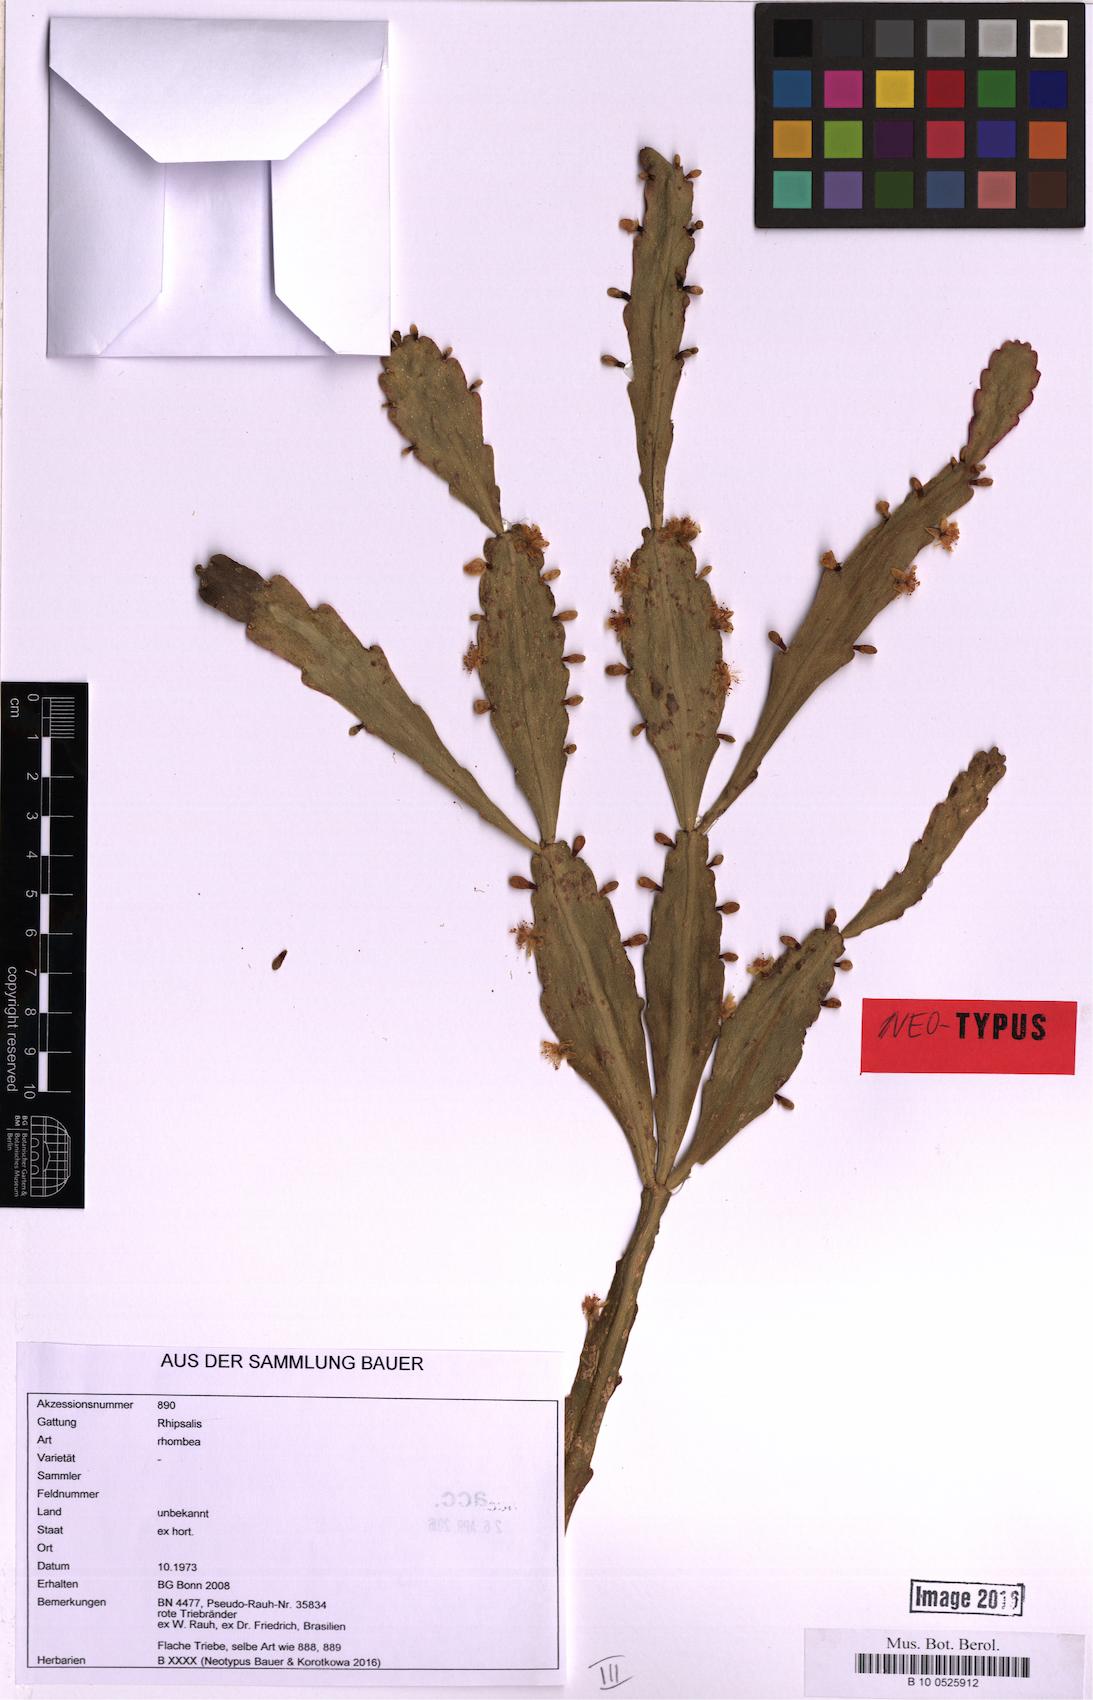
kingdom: Plantae
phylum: Tracheophyta
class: Magnoliopsida
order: Caryophyllales
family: Cactaceae
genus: Rhipsalis
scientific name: Rhipsalis rhombea
